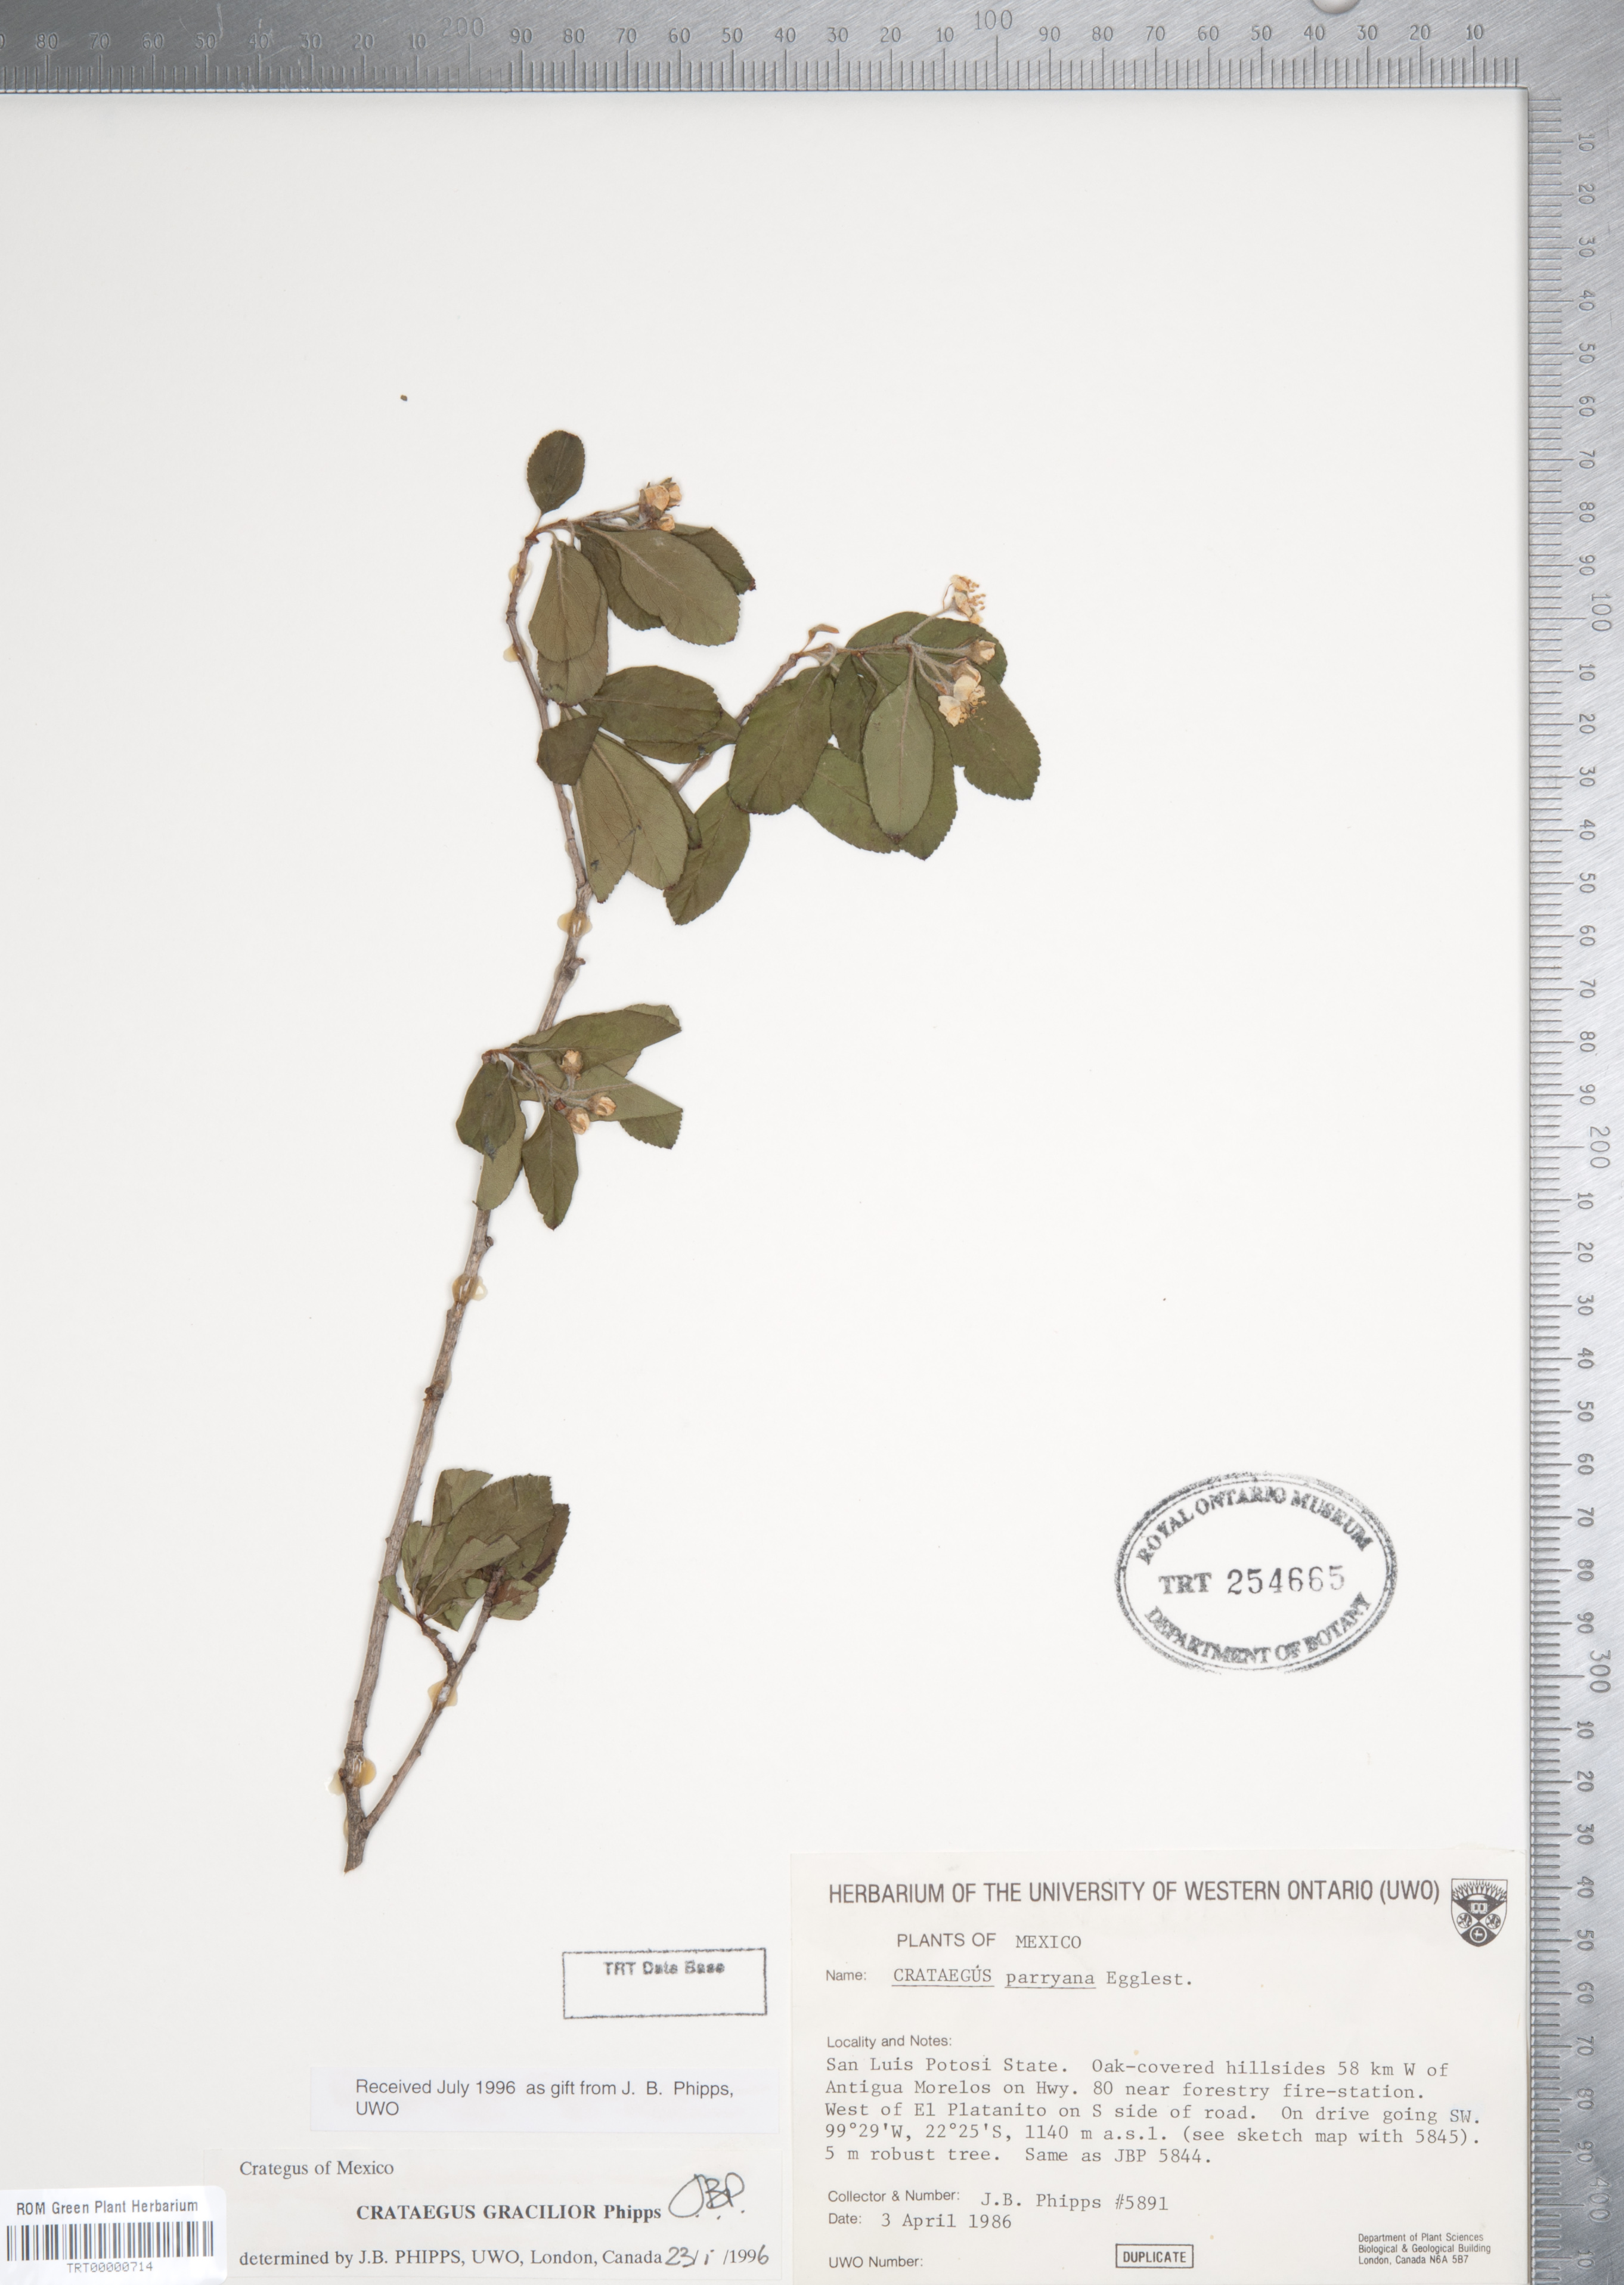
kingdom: Plantae
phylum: Tracheophyta
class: Magnoliopsida
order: Rosales
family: Rosaceae
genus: Crataegus
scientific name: Crataegus gracilior
